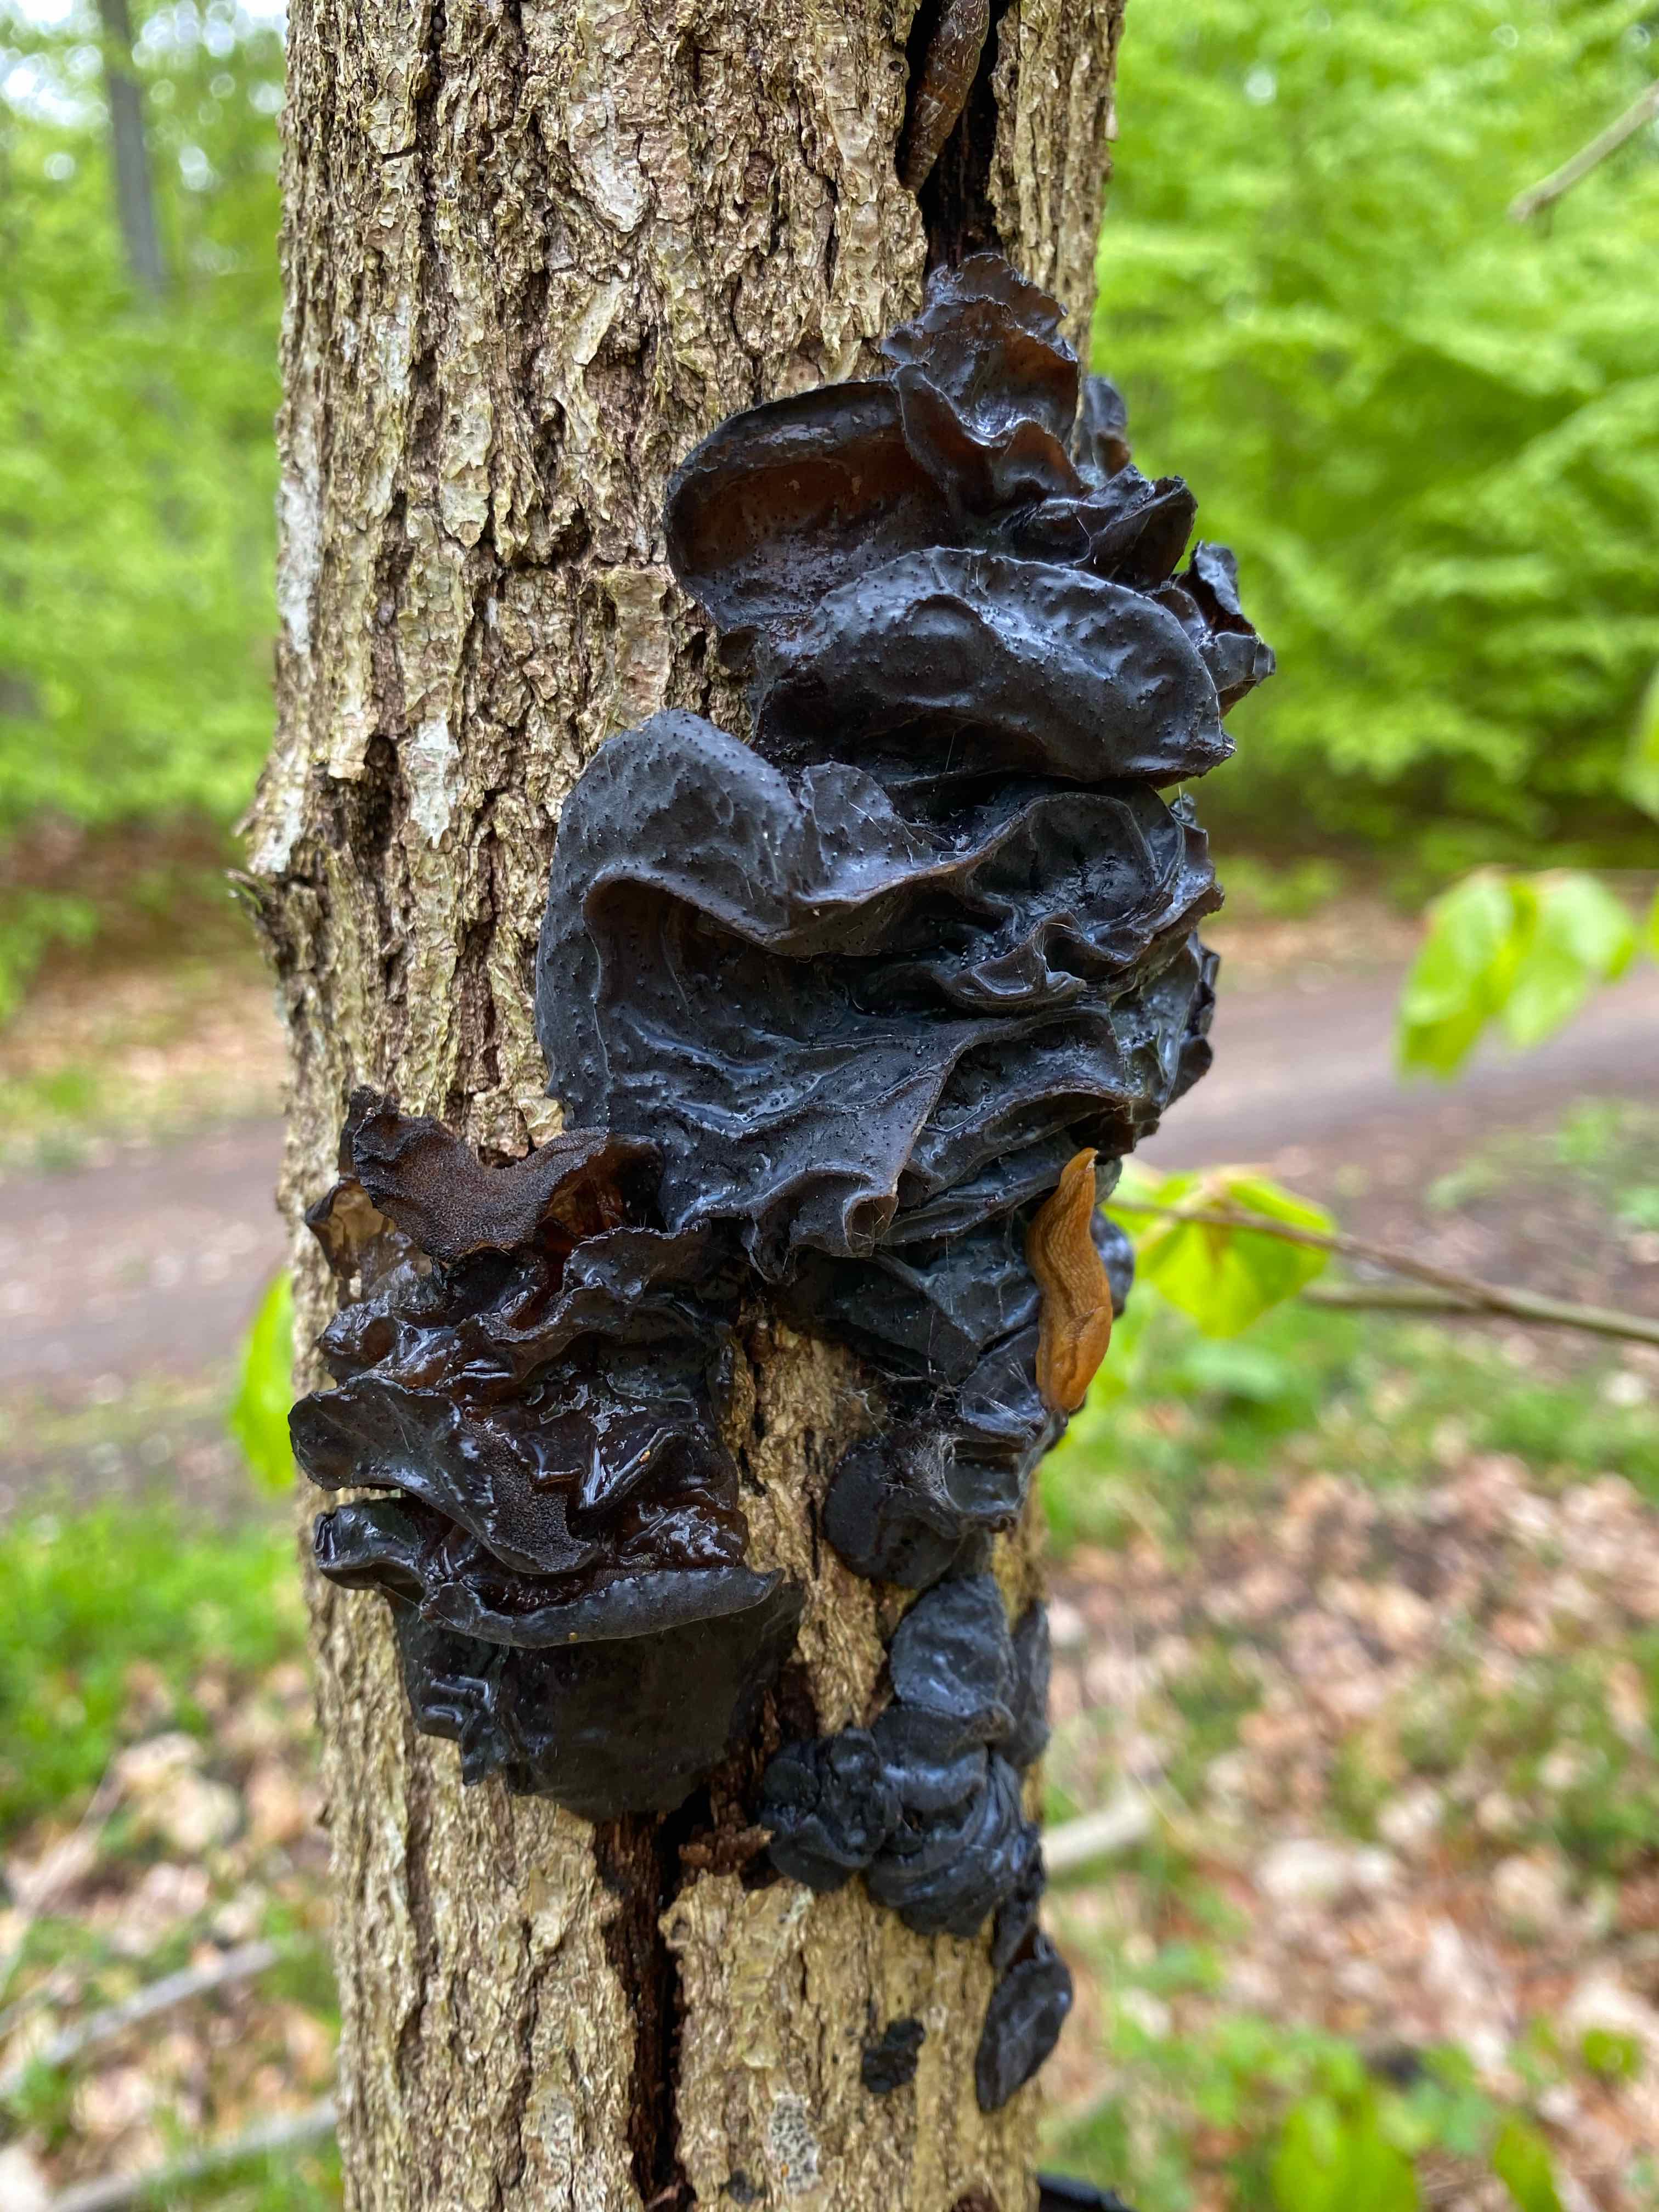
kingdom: Fungi
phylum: Basidiomycota
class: Agaricomycetes
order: Auriculariales
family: Auriculariaceae
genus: Exidia
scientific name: Exidia glandulosa
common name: ege-bævretop
